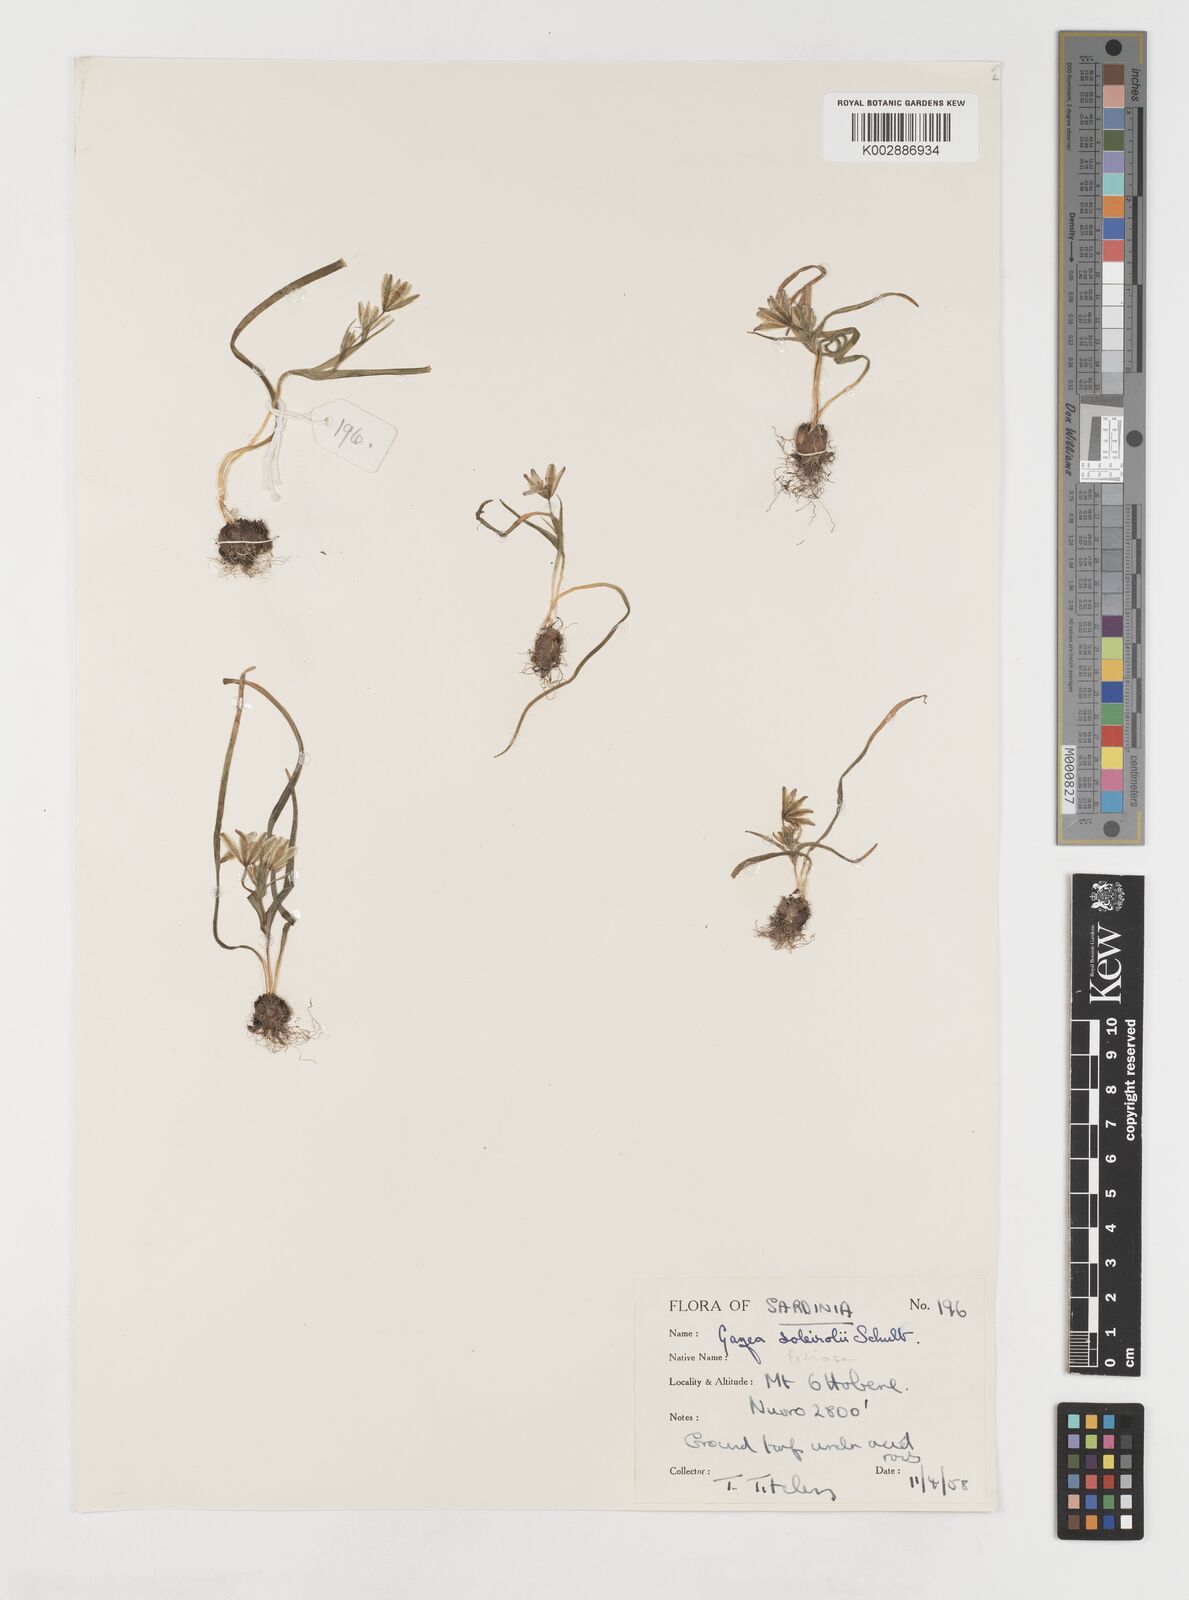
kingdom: Plantae
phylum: Tracheophyta
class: Liliopsida
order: Liliales
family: Liliaceae
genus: Gagea
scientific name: Gagea soleirolii
